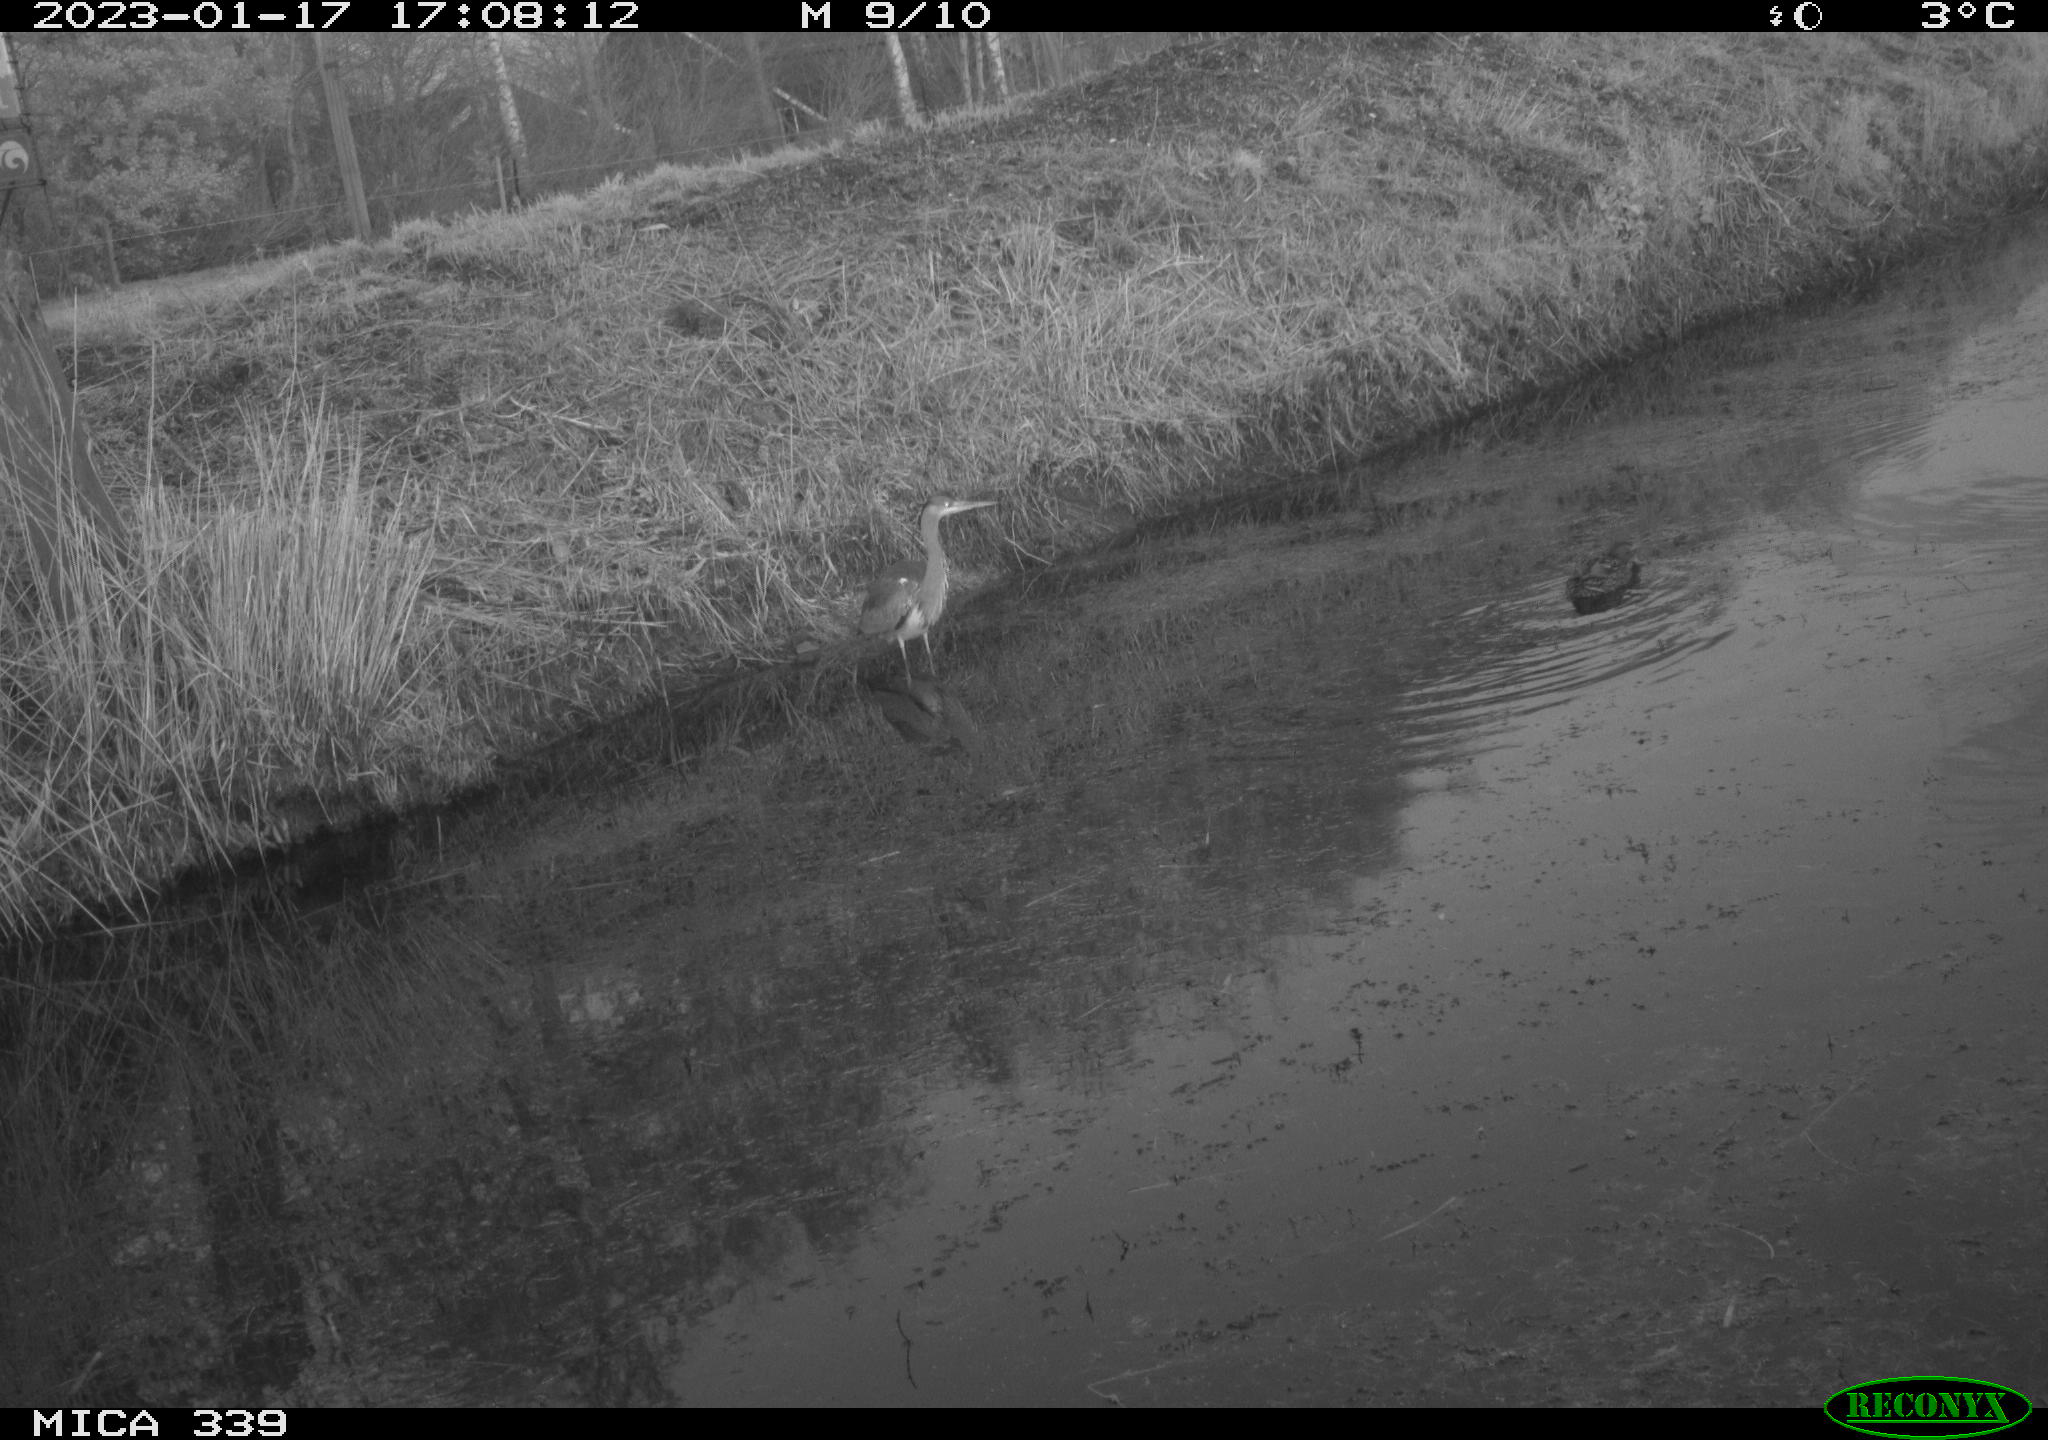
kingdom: Animalia
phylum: Chordata
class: Aves
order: Anseriformes
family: Anatidae
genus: Anas
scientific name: Anas
